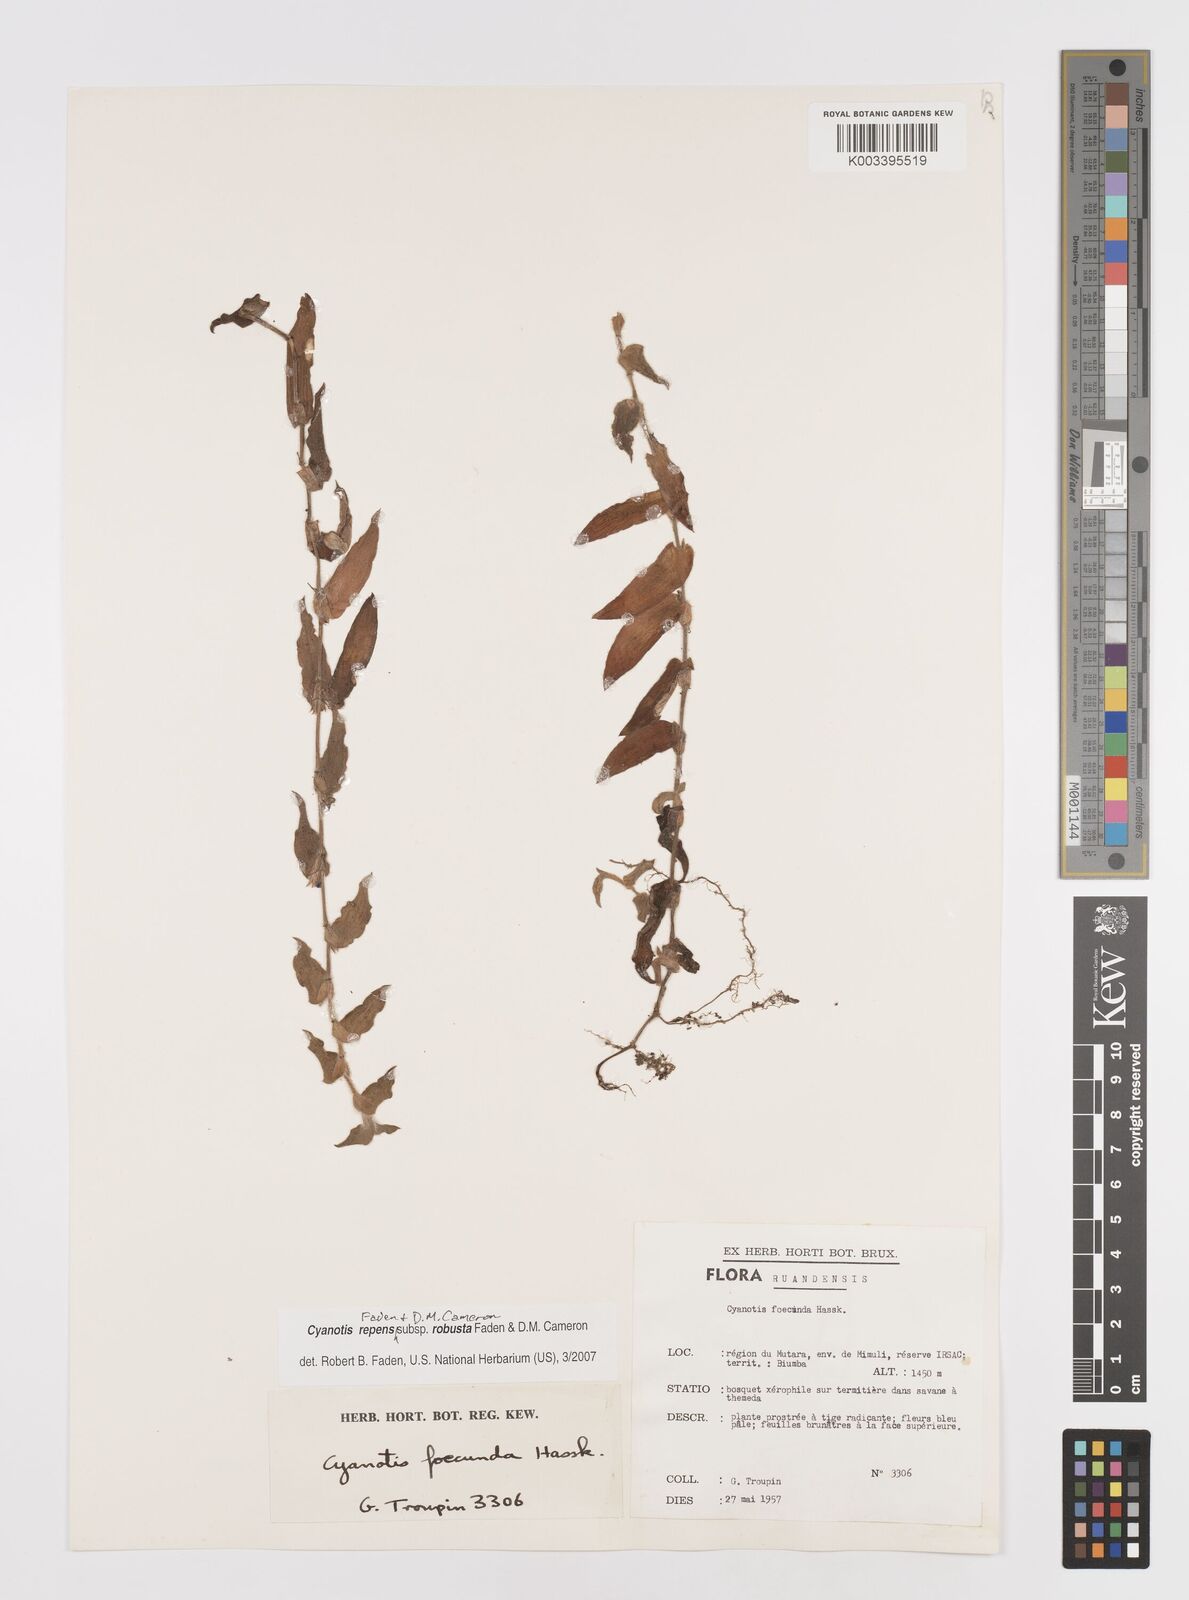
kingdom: Plantae
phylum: Tracheophyta
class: Liliopsida
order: Commelinales
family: Commelinaceae
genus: Cyanotis
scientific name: Cyanotis repens
